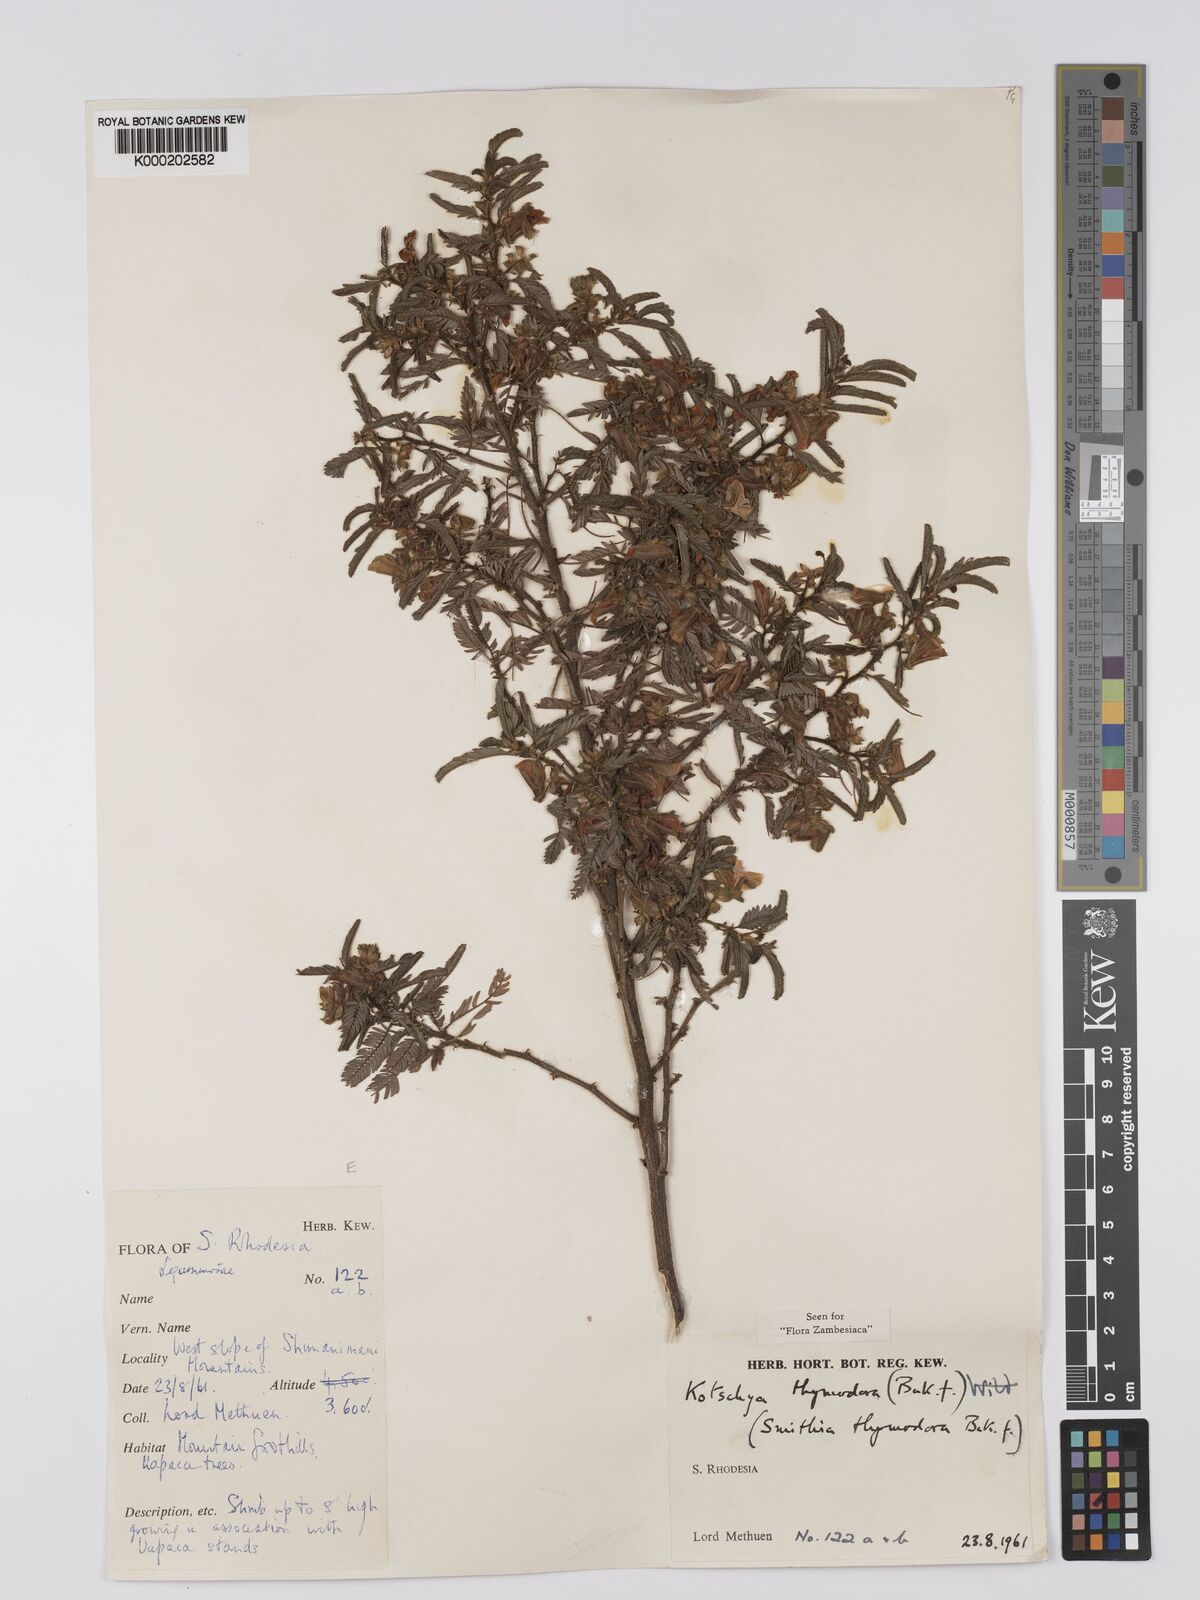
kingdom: Plantae
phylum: Tracheophyta
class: Magnoliopsida
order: Fabales
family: Fabaceae
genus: Kotschya
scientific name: Kotschya thymodora
